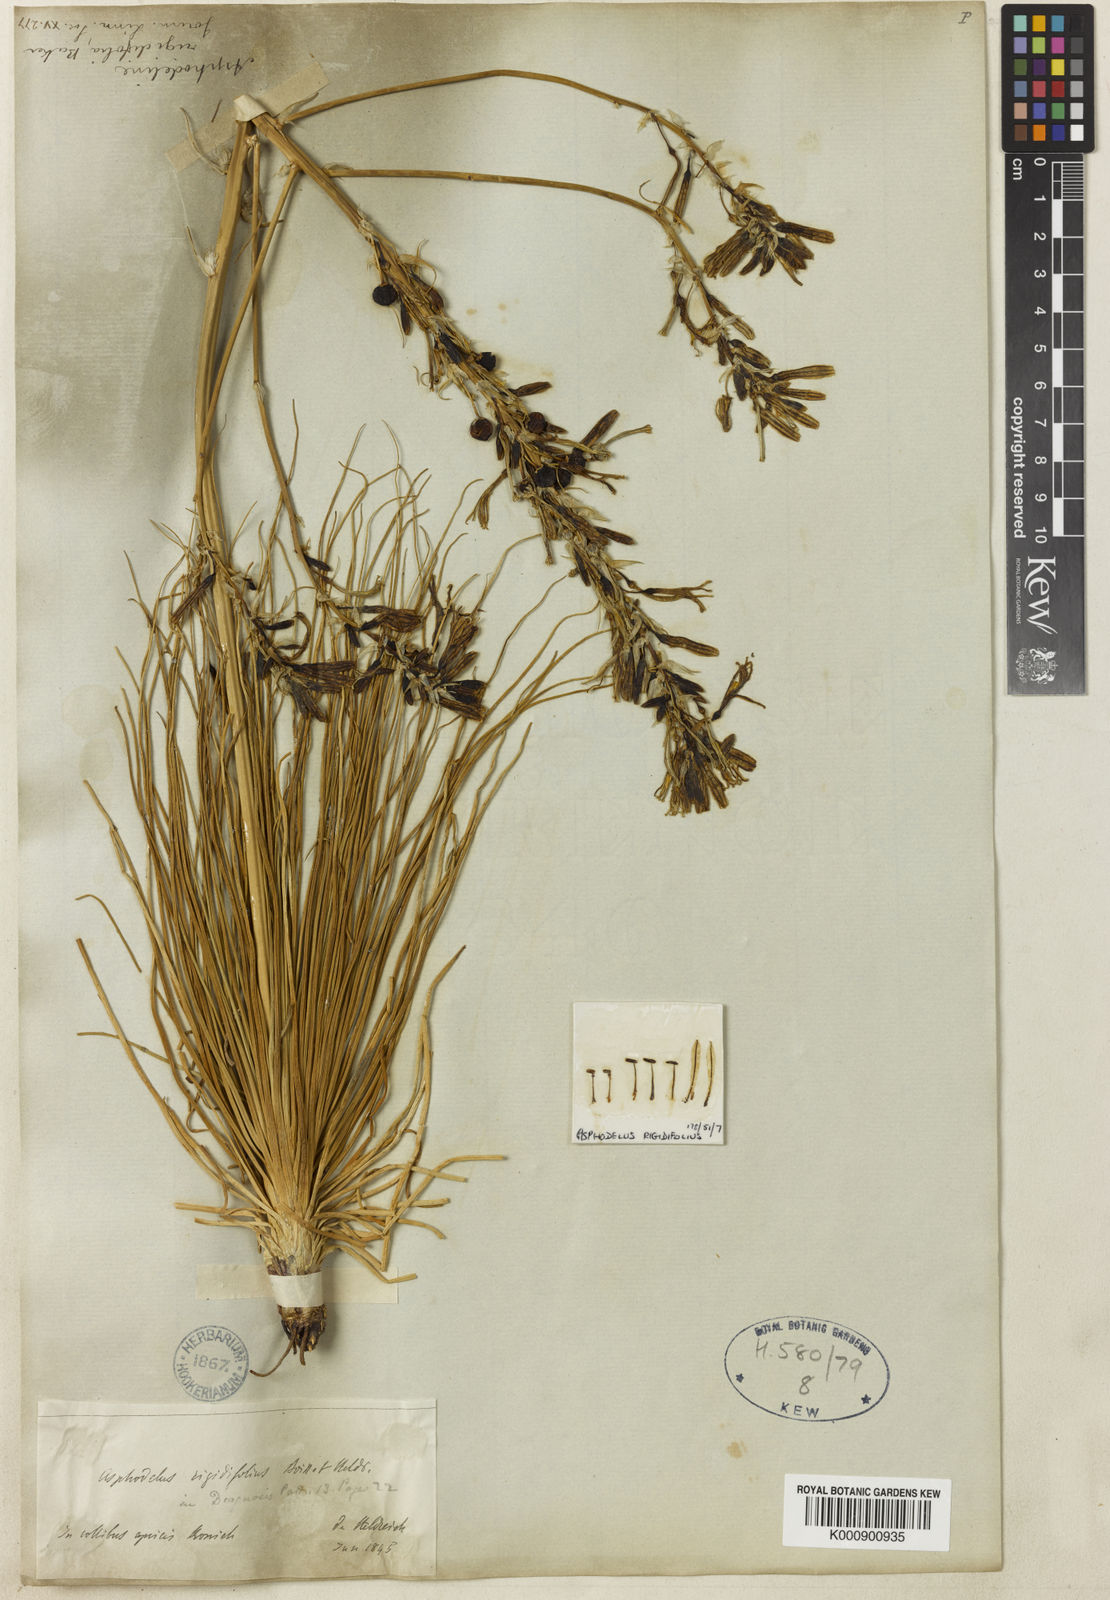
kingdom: Plantae
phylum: Tracheophyta
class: Liliopsida
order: Asparagales
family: Asphodelaceae
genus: Asphodeline
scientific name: Asphodeline rigidifolia
